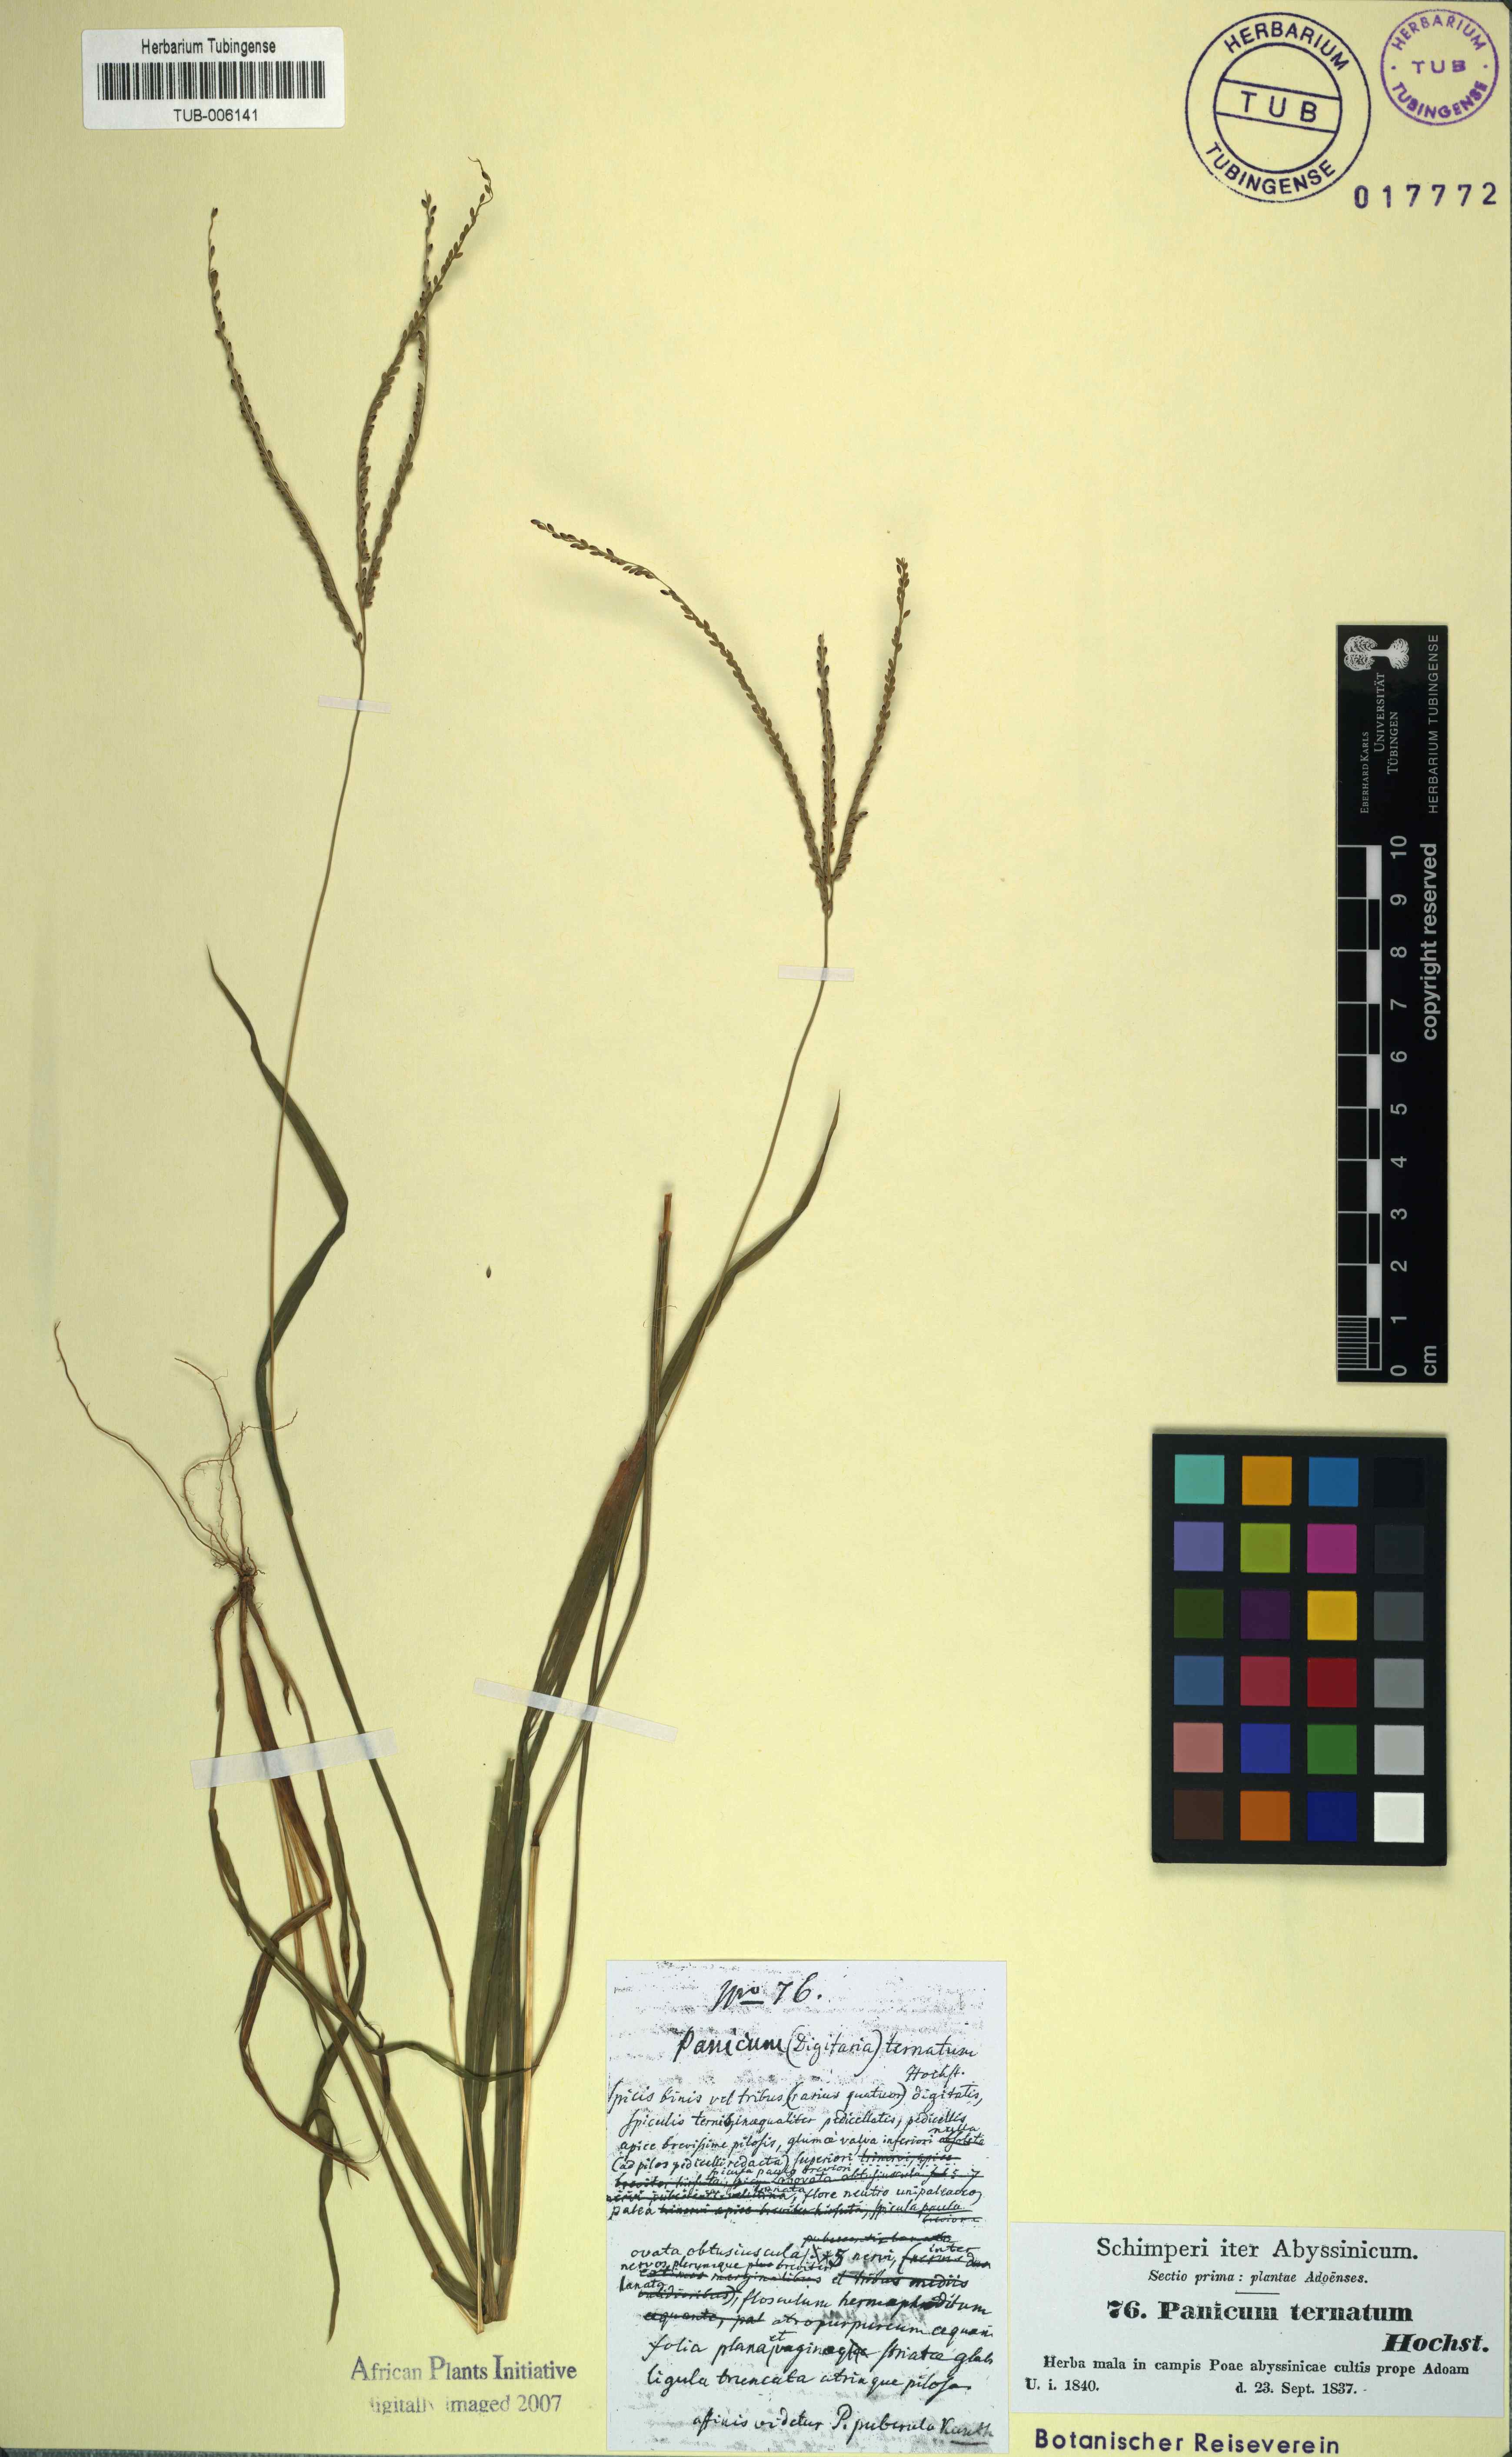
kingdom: Plantae
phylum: Tracheophyta
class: Liliopsida
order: Poales
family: Poaceae
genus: Digitaria
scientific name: Digitaria ischaemum
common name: Smooth crabgrass
